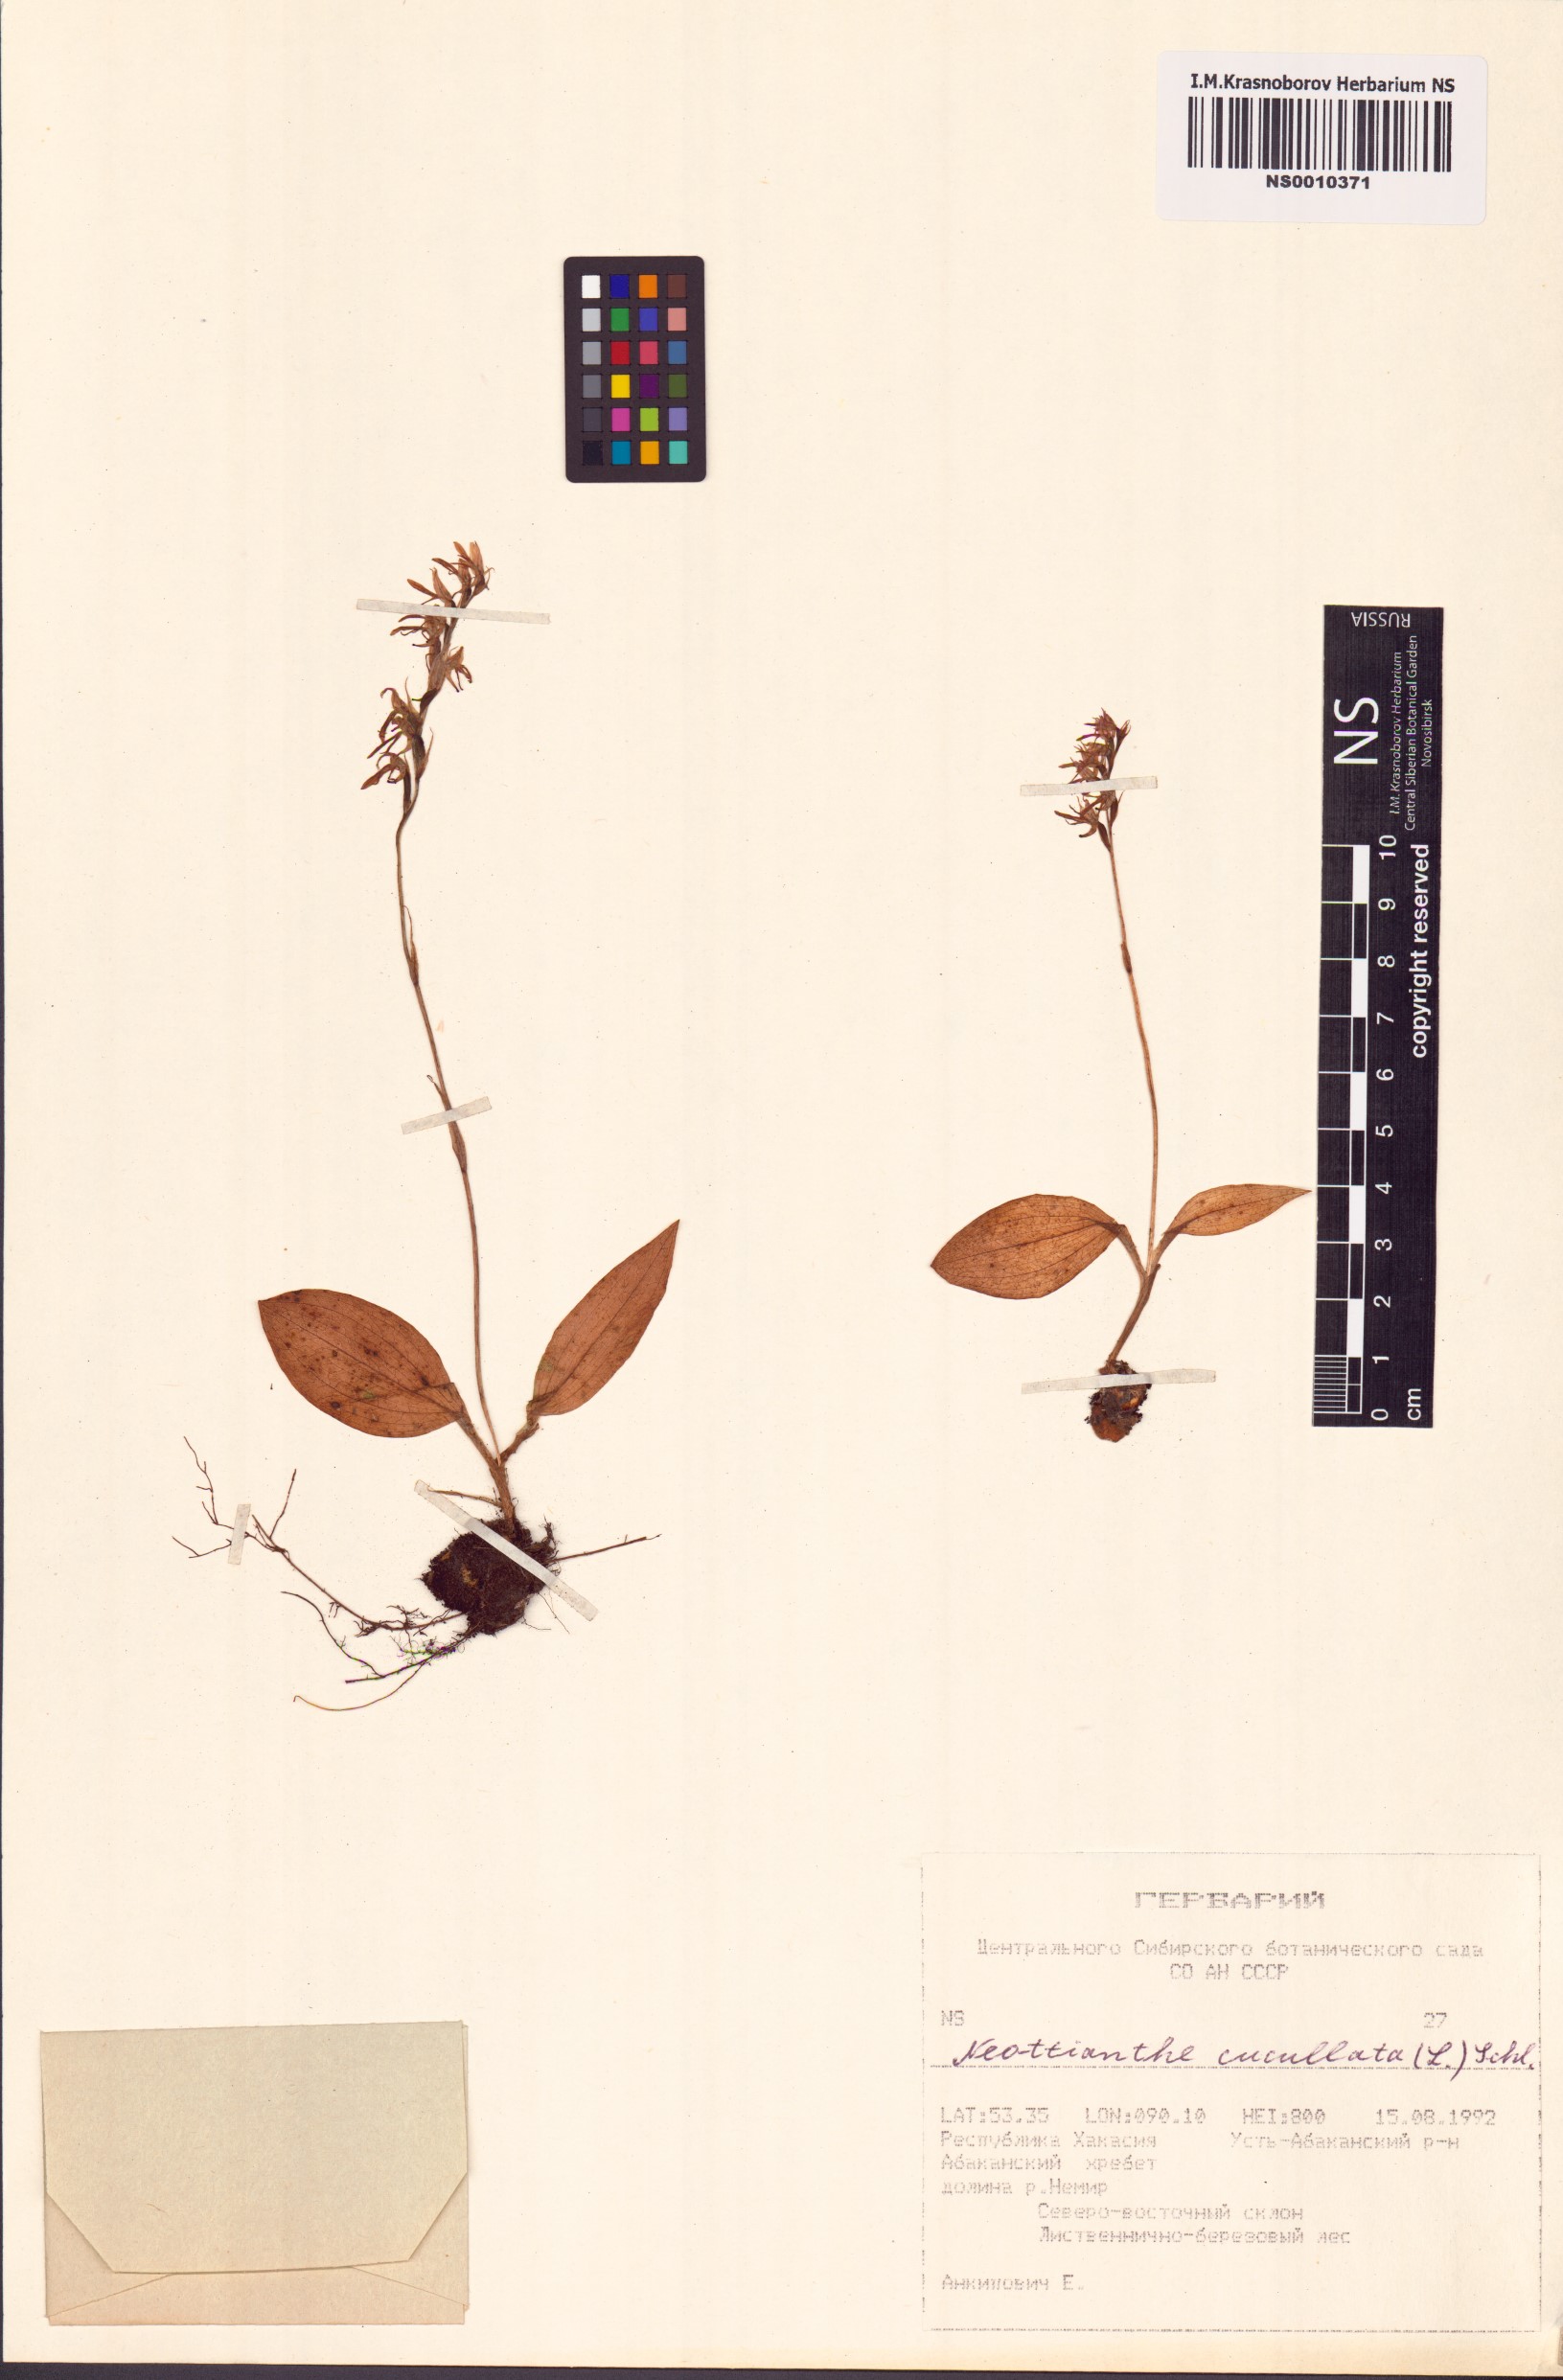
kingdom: Plantae
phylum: Tracheophyta
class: Liliopsida
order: Asparagales
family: Orchidaceae
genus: Hemipilia
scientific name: Hemipilia cucullata
